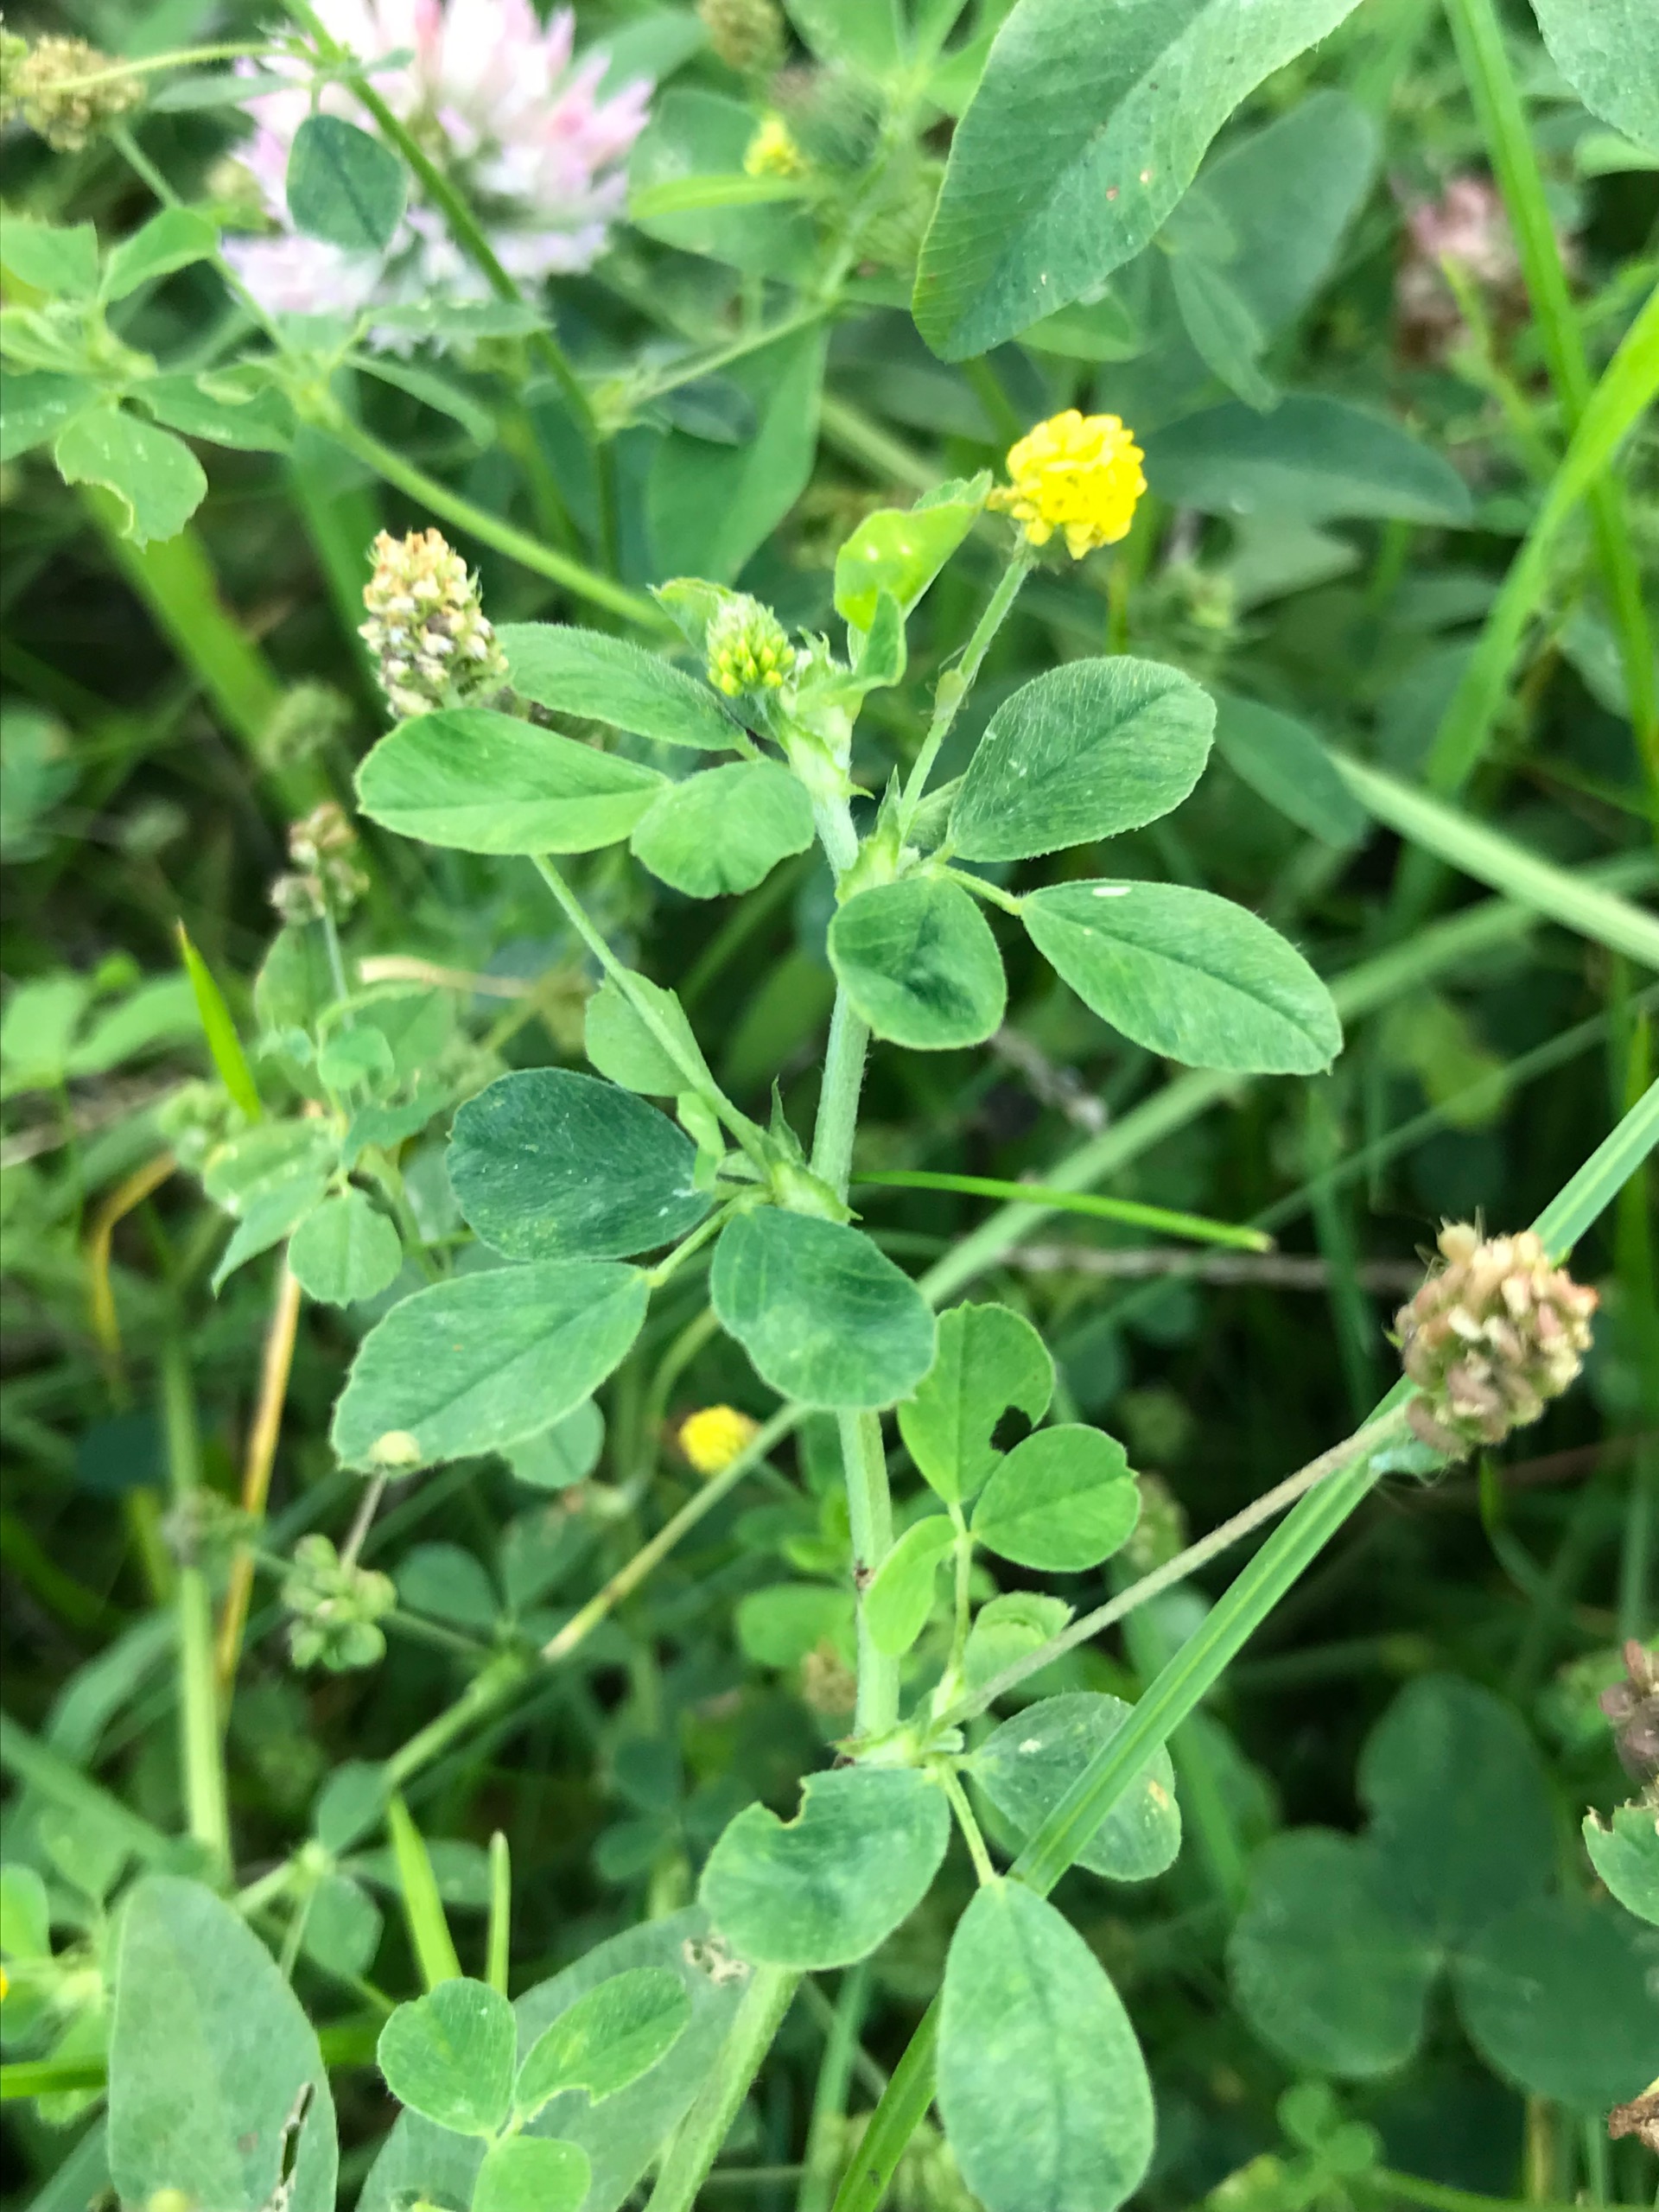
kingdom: Plantae
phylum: Tracheophyta
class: Magnoliopsida
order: Fabales
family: Fabaceae
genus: Medicago
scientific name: Medicago lupulina
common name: Humle-sneglebælg
